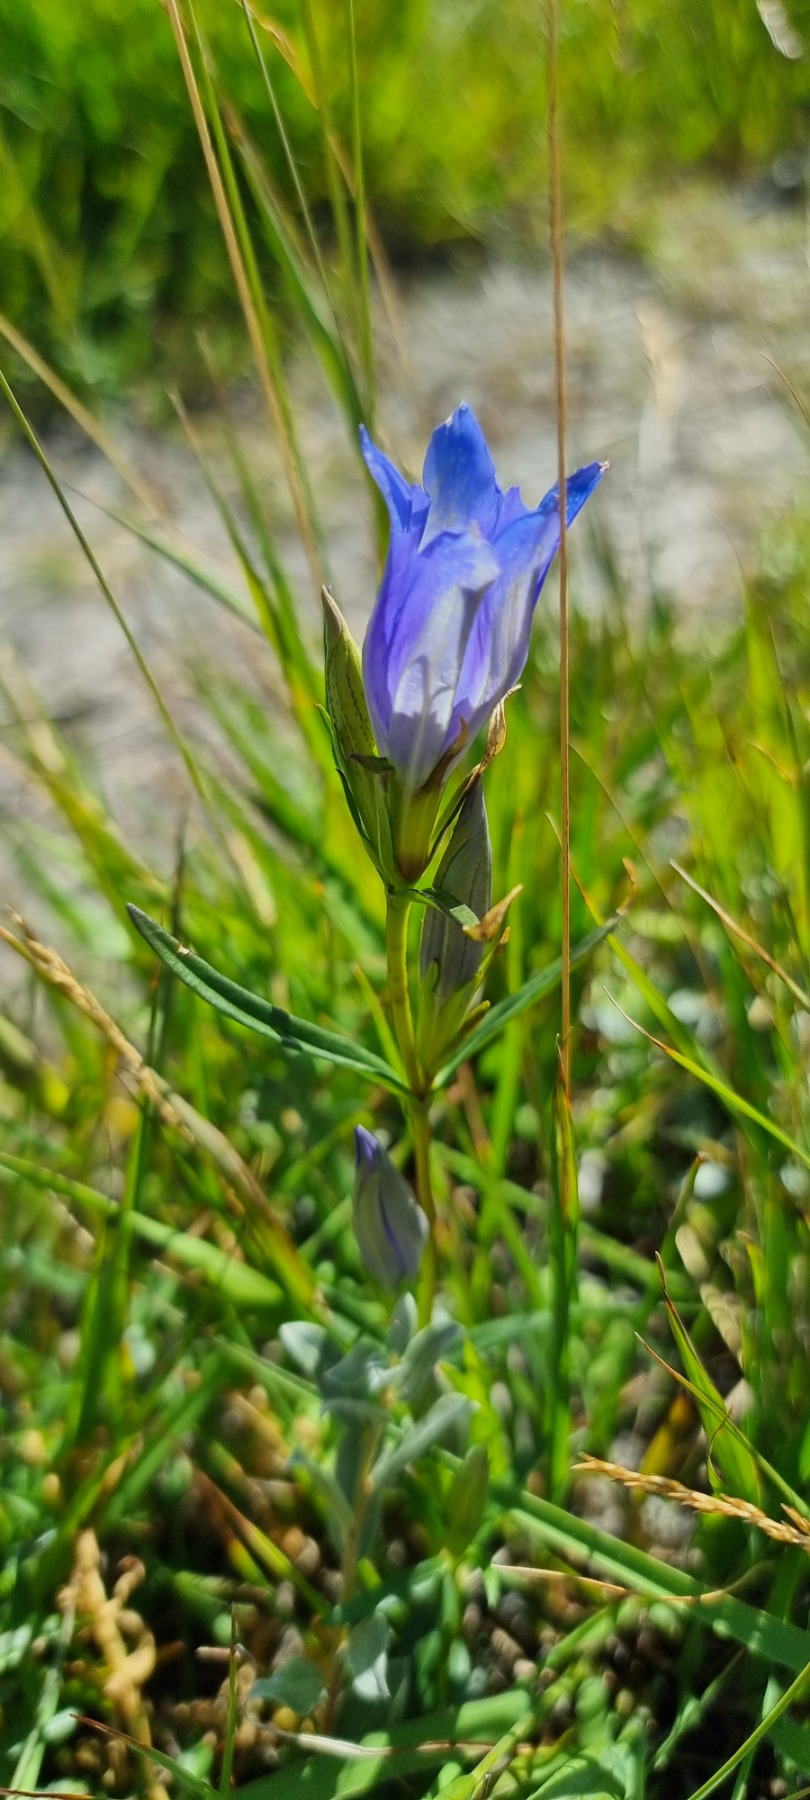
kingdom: Plantae
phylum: Tracheophyta
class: Magnoliopsida
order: Gentianales
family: Gentianaceae
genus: Gentiana
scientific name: Gentiana pneumonanthe
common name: Klokke-ensian
